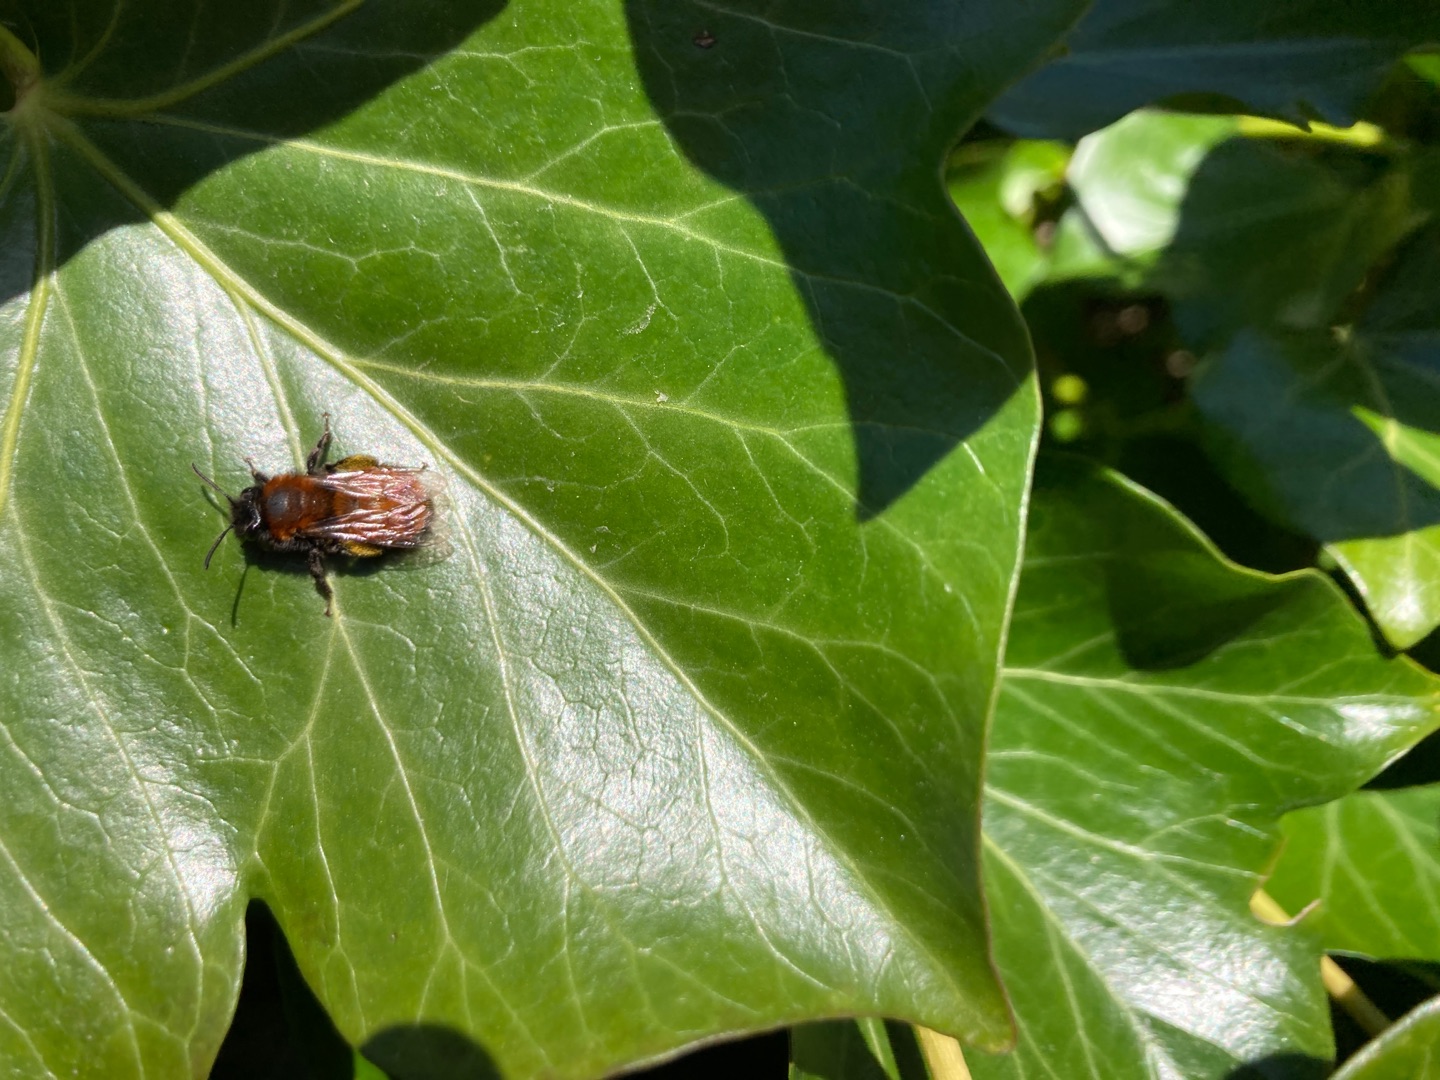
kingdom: Animalia
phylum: Arthropoda
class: Insecta
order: Hymenoptera
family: Andrenidae
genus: Andrena
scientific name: Andrena fulva
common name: Rødpelset jordbi
